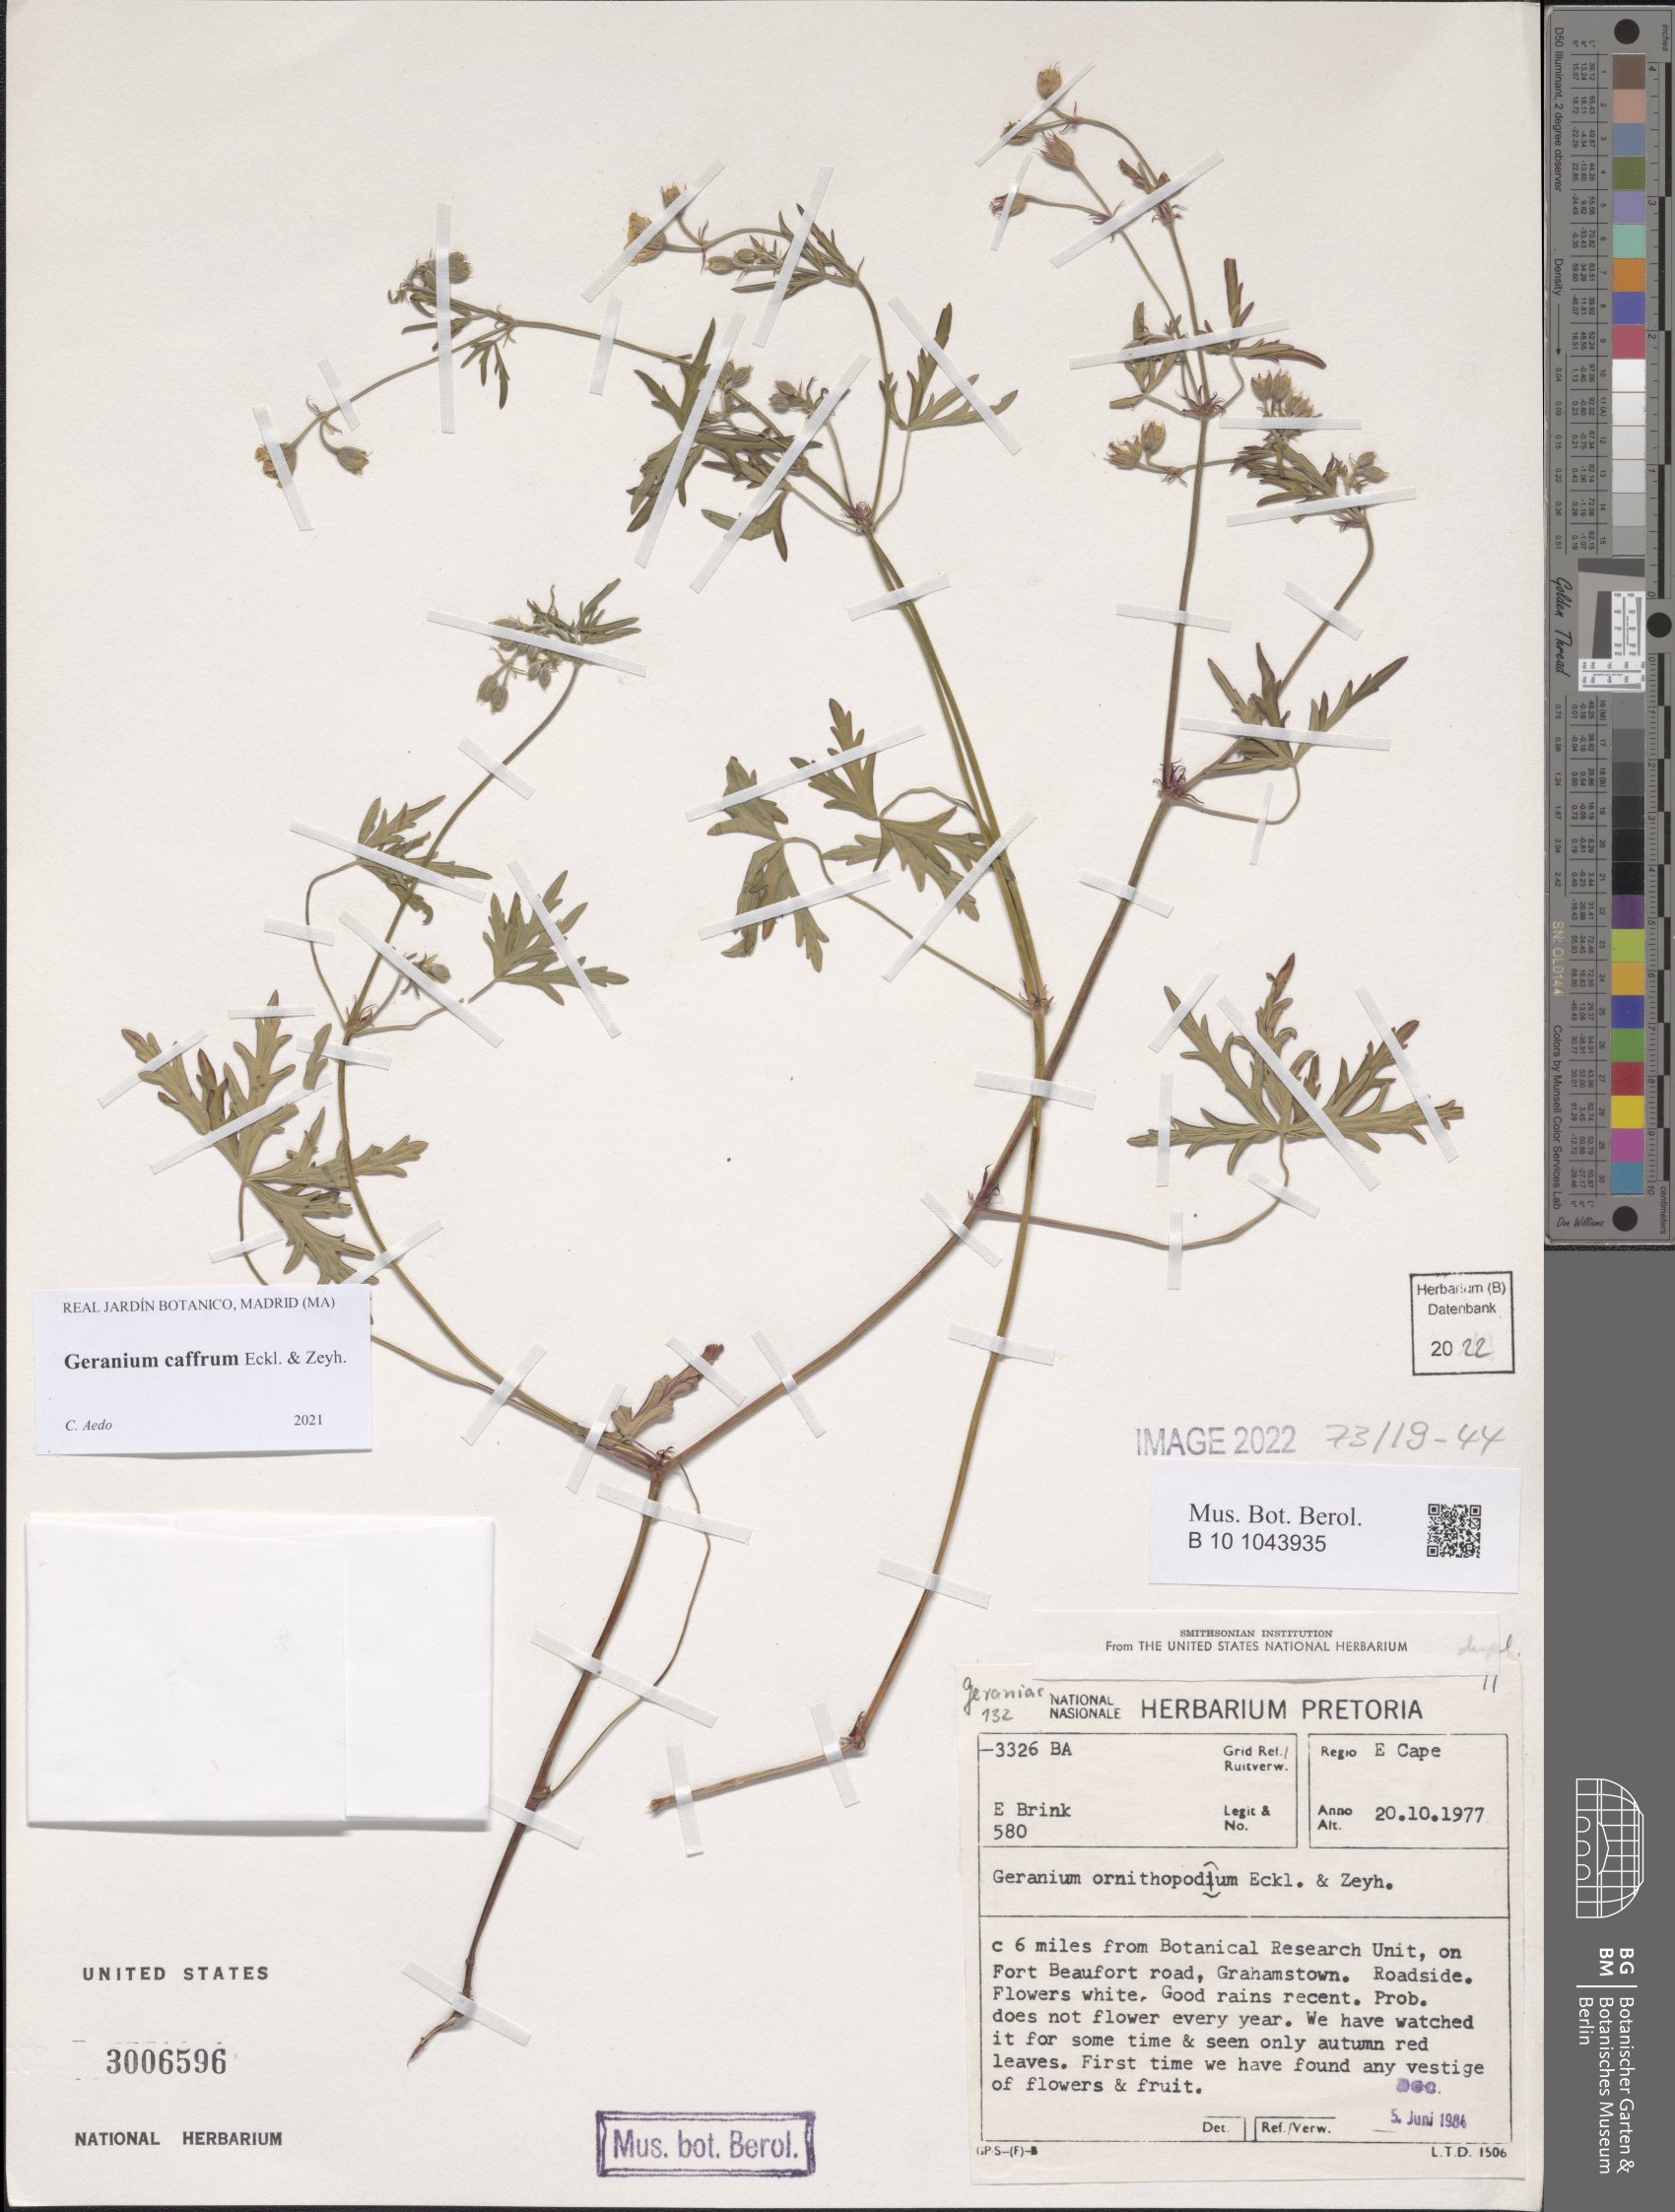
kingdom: Plantae
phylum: Tracheophyta
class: Magnoliopsida
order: Geraniales
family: Geraniaceae
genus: Geranium
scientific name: Geranium caffrum
